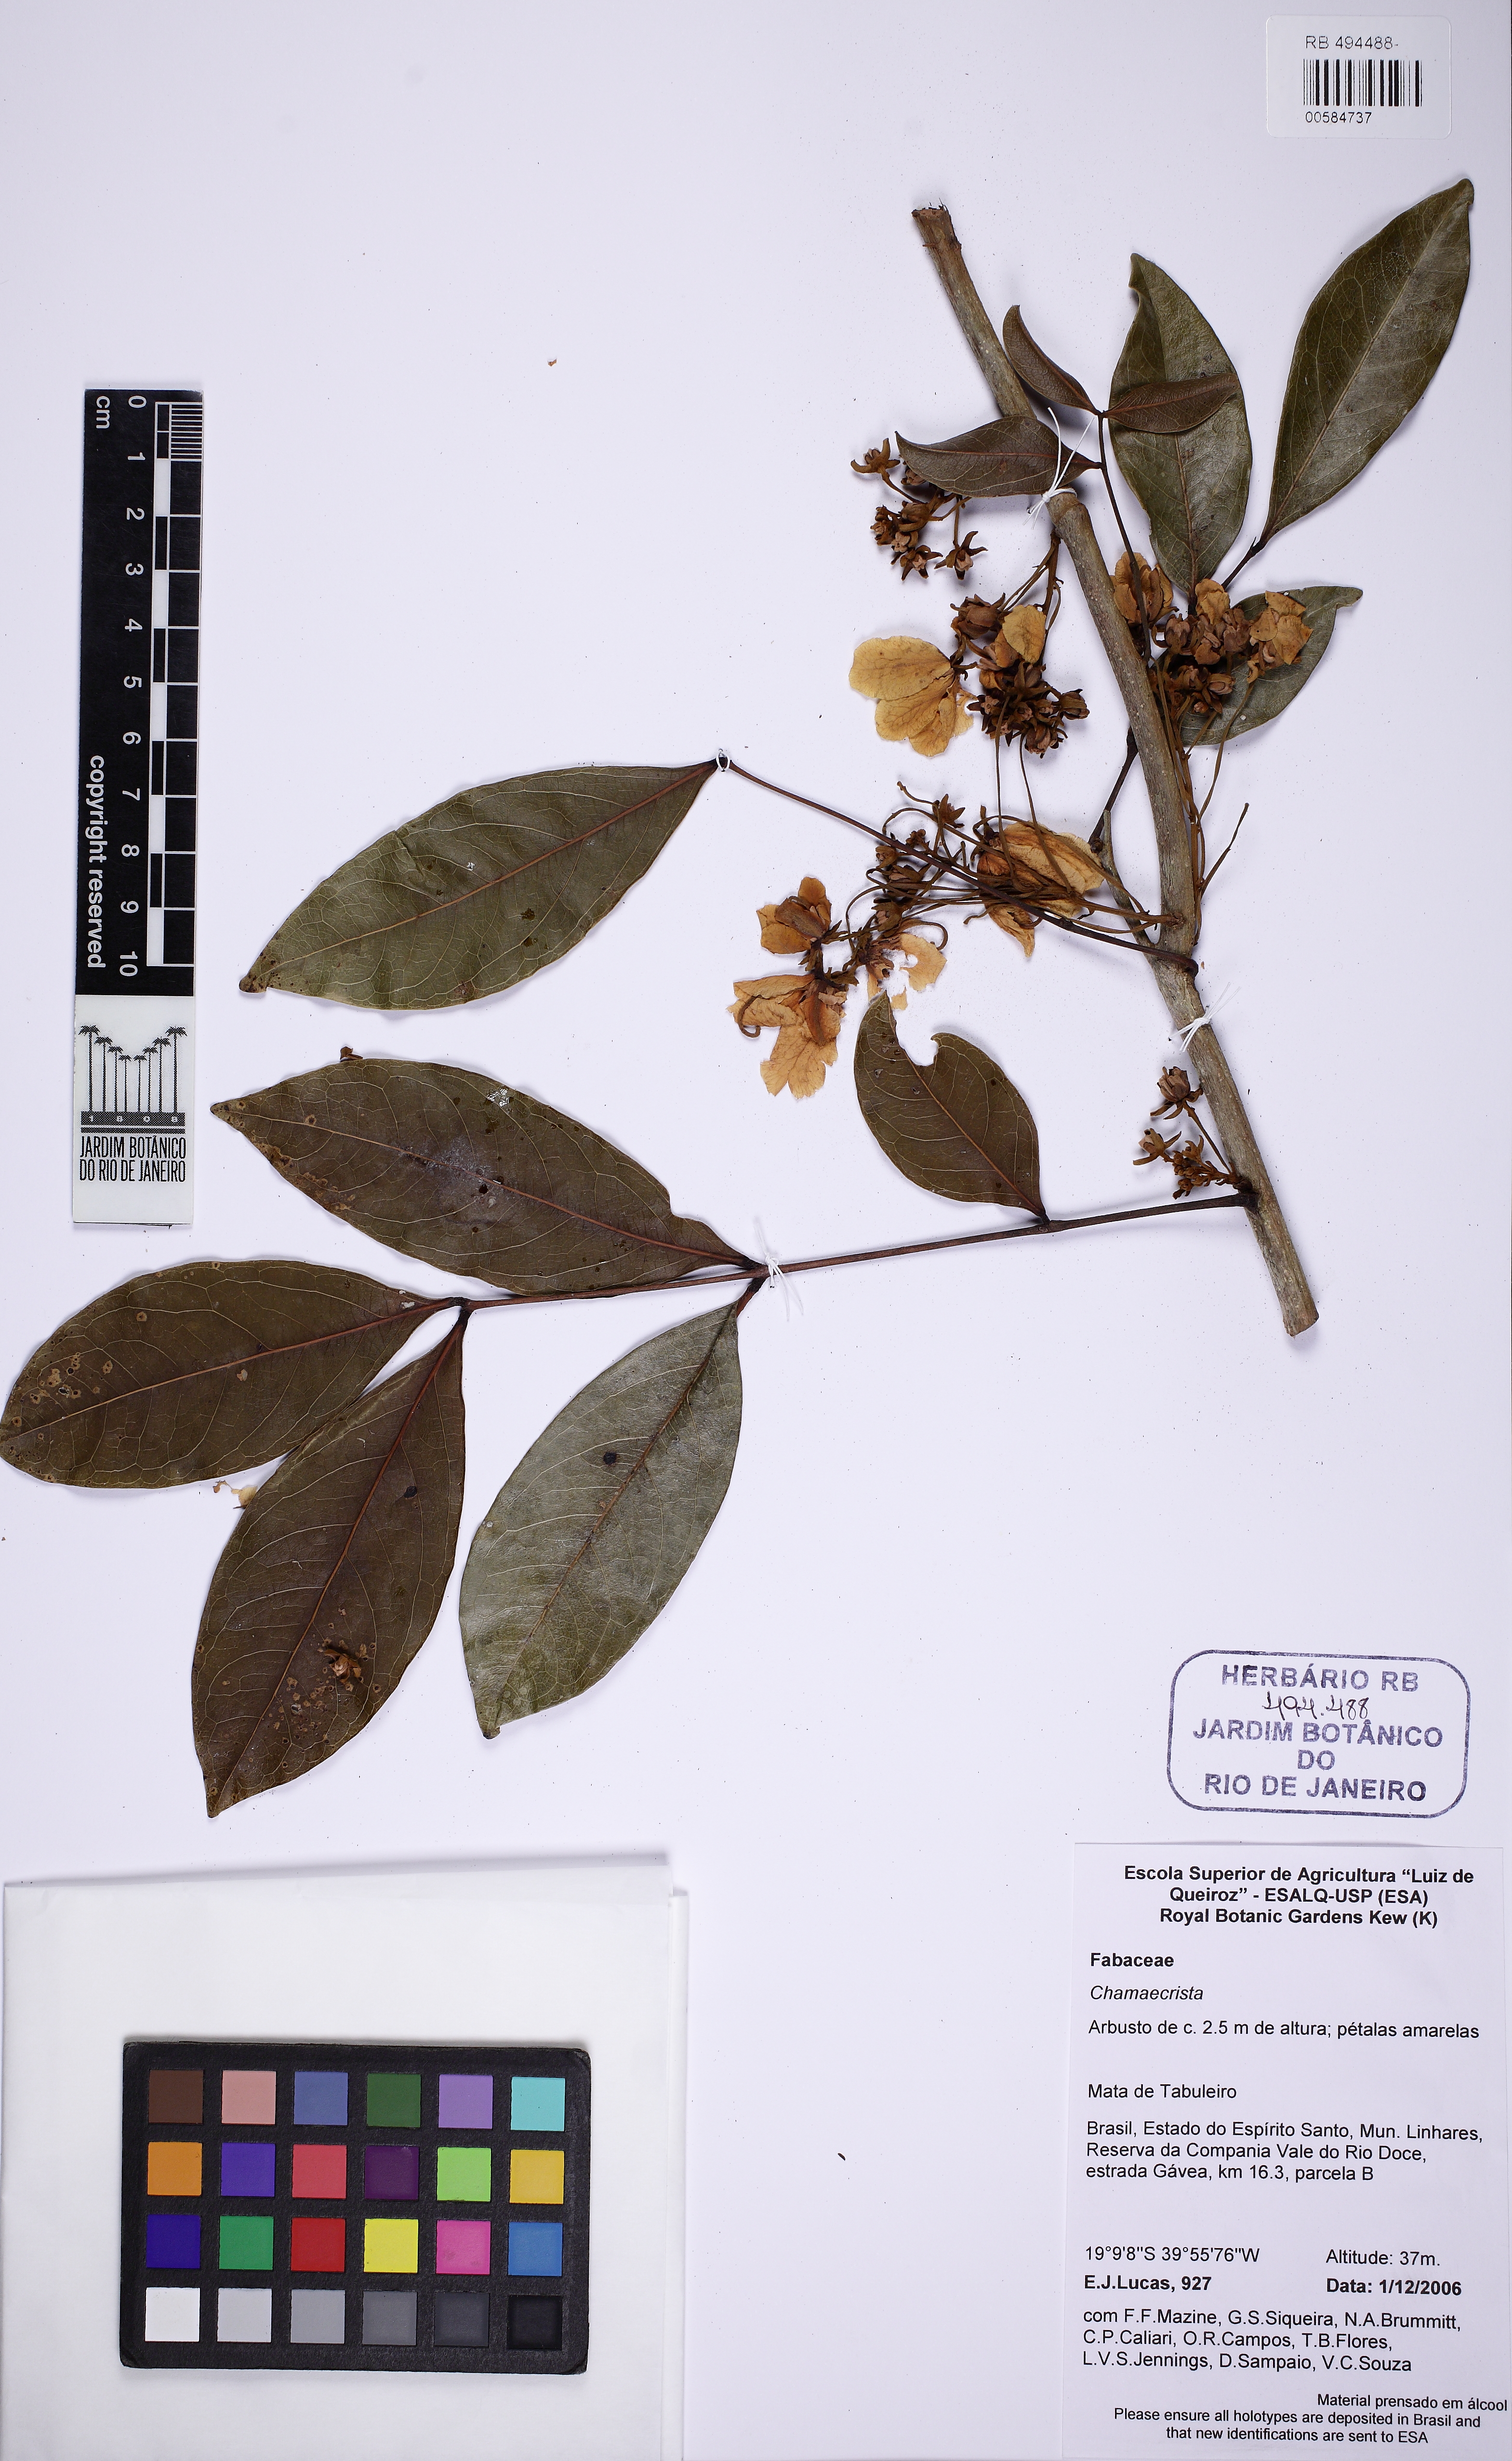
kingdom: Plantae
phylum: Tracheophyta
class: Magnoliopsida
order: Fabales
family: Fabaceae
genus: Chamaecrista
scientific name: Chamaecrista
